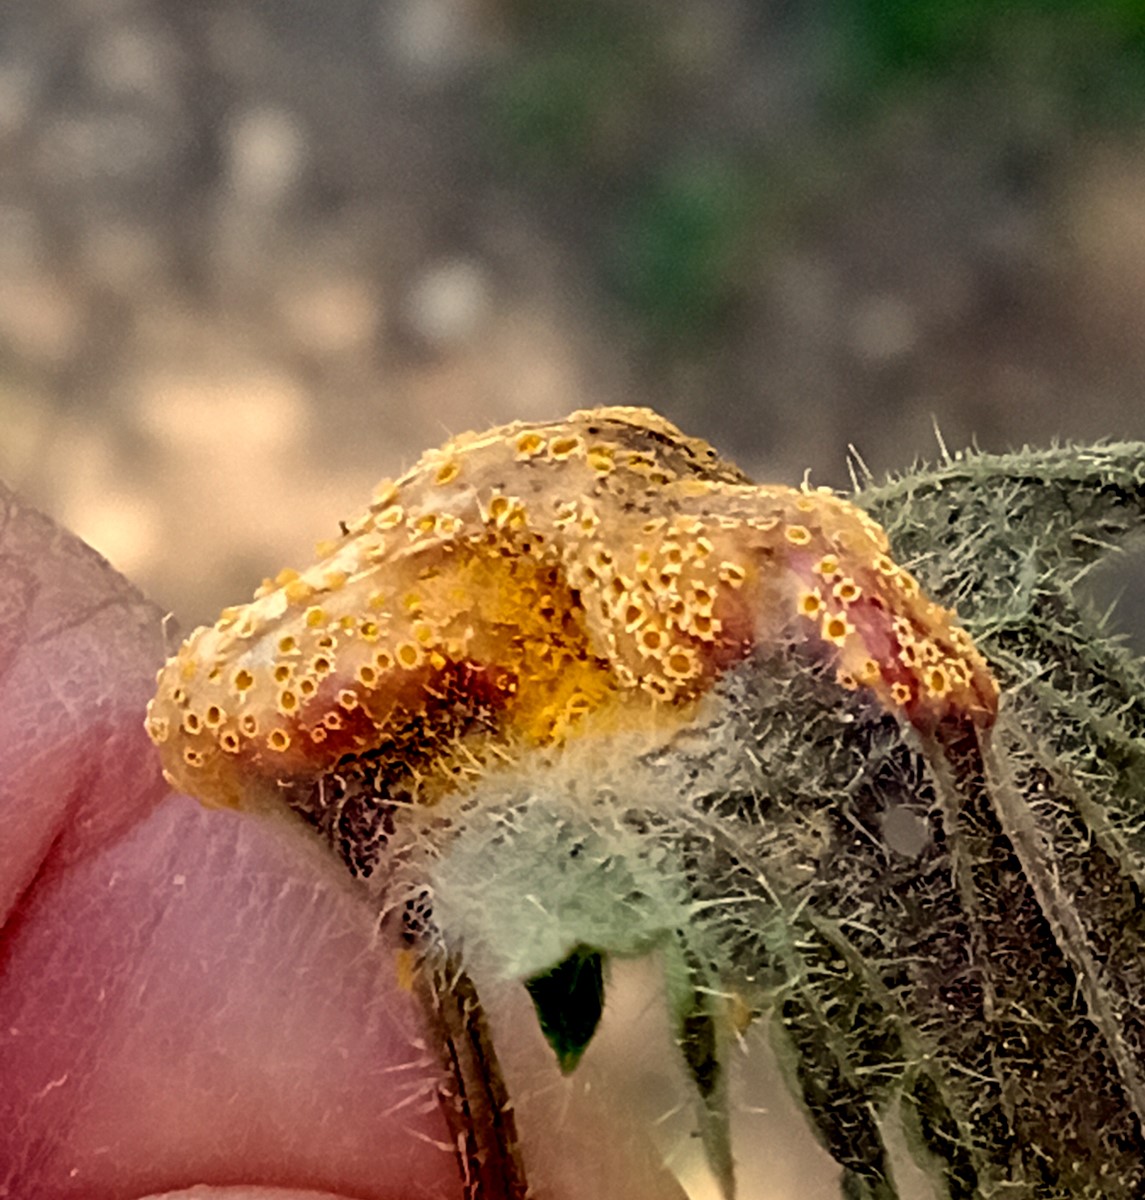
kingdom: Fungi
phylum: Basidiomycota
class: Pucciniomycetes
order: Pucciniales
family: Pucciniaceae
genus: Puccinia
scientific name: Puccinia urticata
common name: nældegalle-tvecellerust
